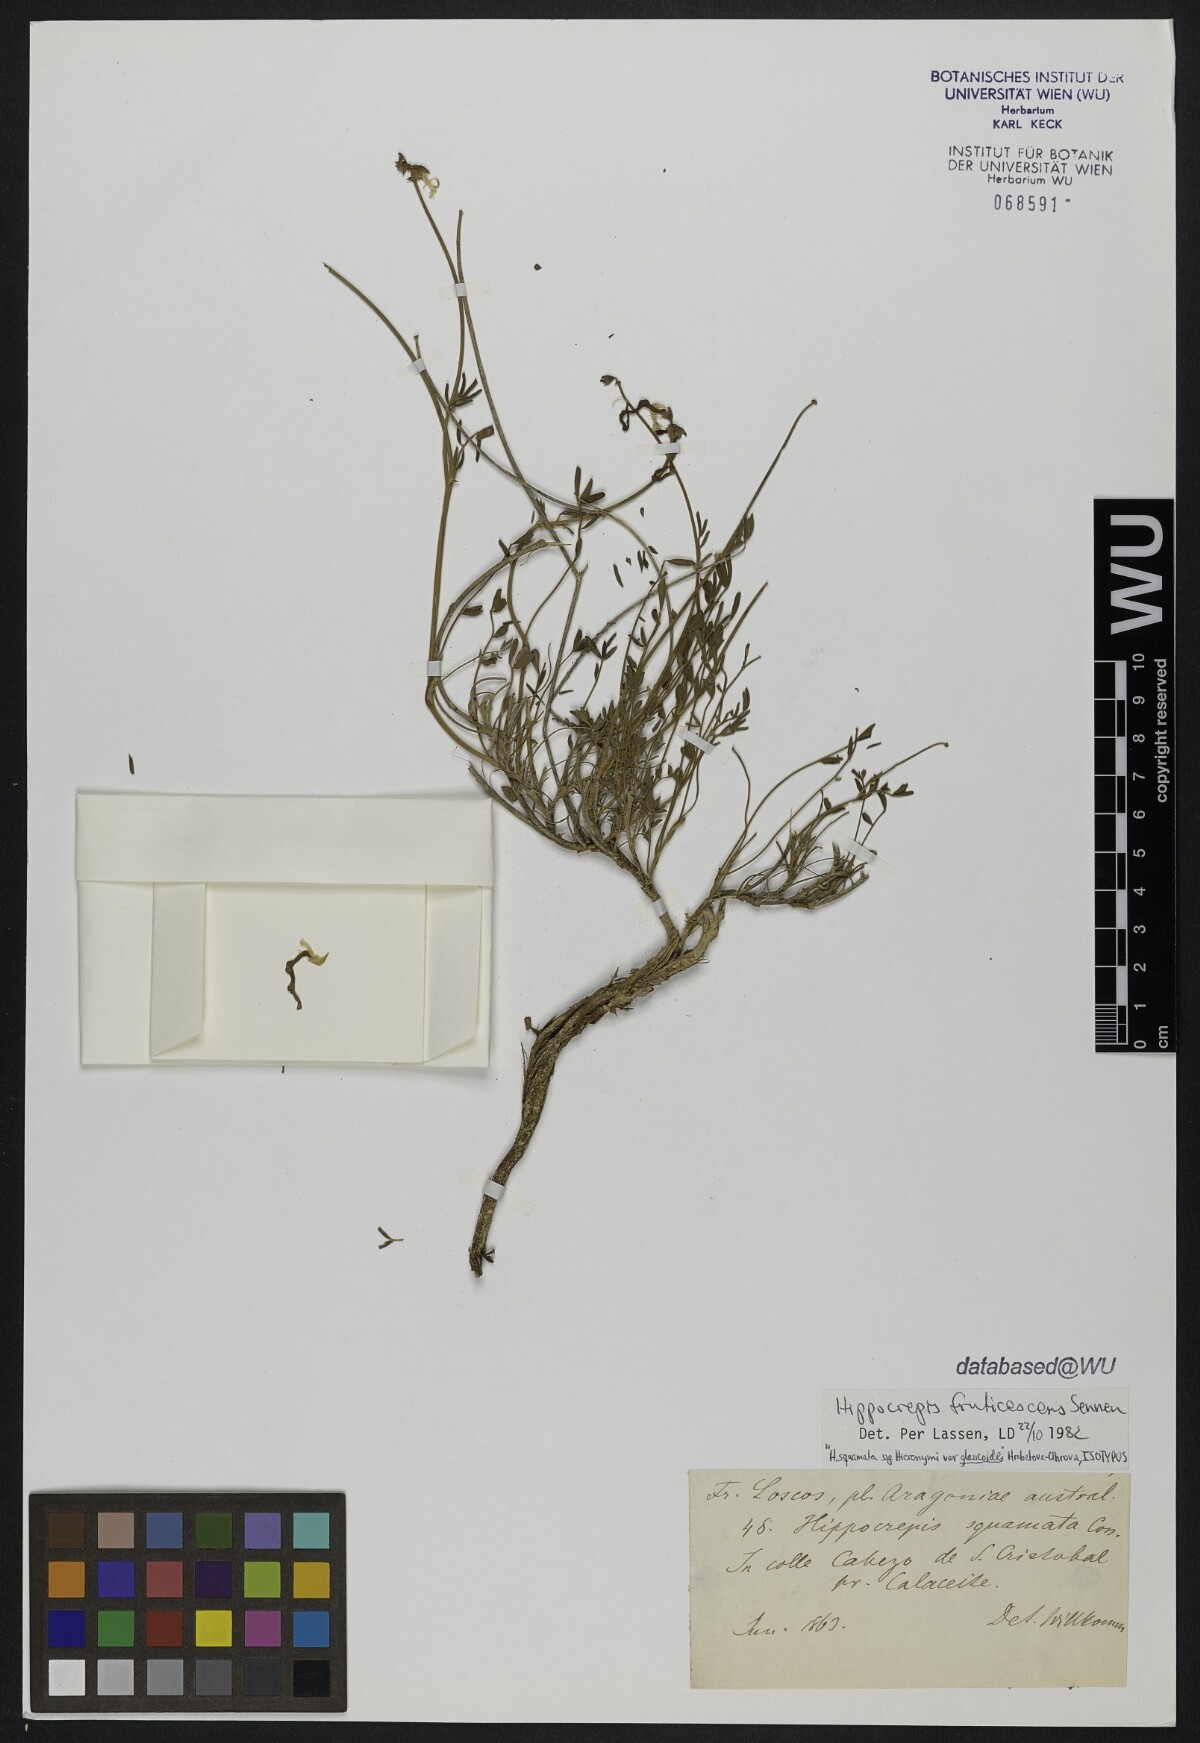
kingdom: Plantae
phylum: Tracheophyta
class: Magnoliopsida
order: Fabales
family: Fabaceae
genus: Hippocrepis
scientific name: Hippocrepis squamata
